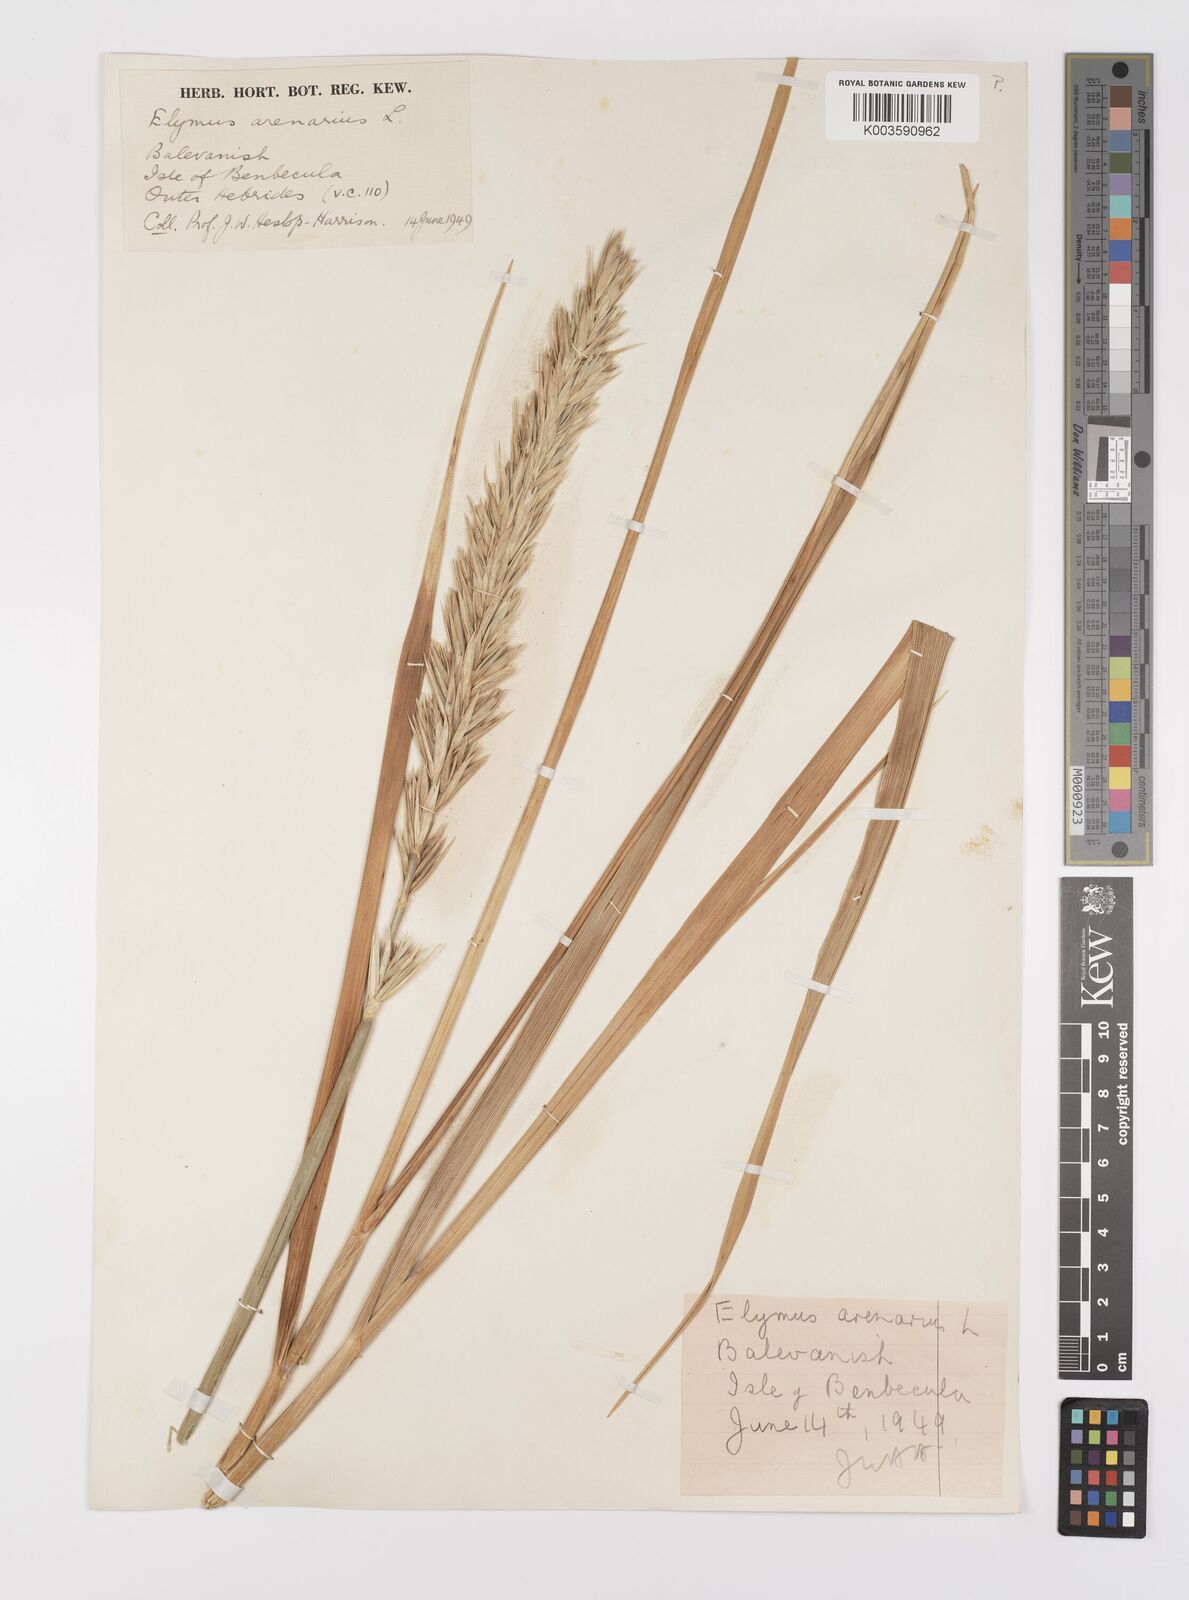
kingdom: Plantae
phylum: Tracheophyta
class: Liliopsida
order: Poales
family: Poaceae
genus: Leymus
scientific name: Leymus arenarius
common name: Lyme-grass
